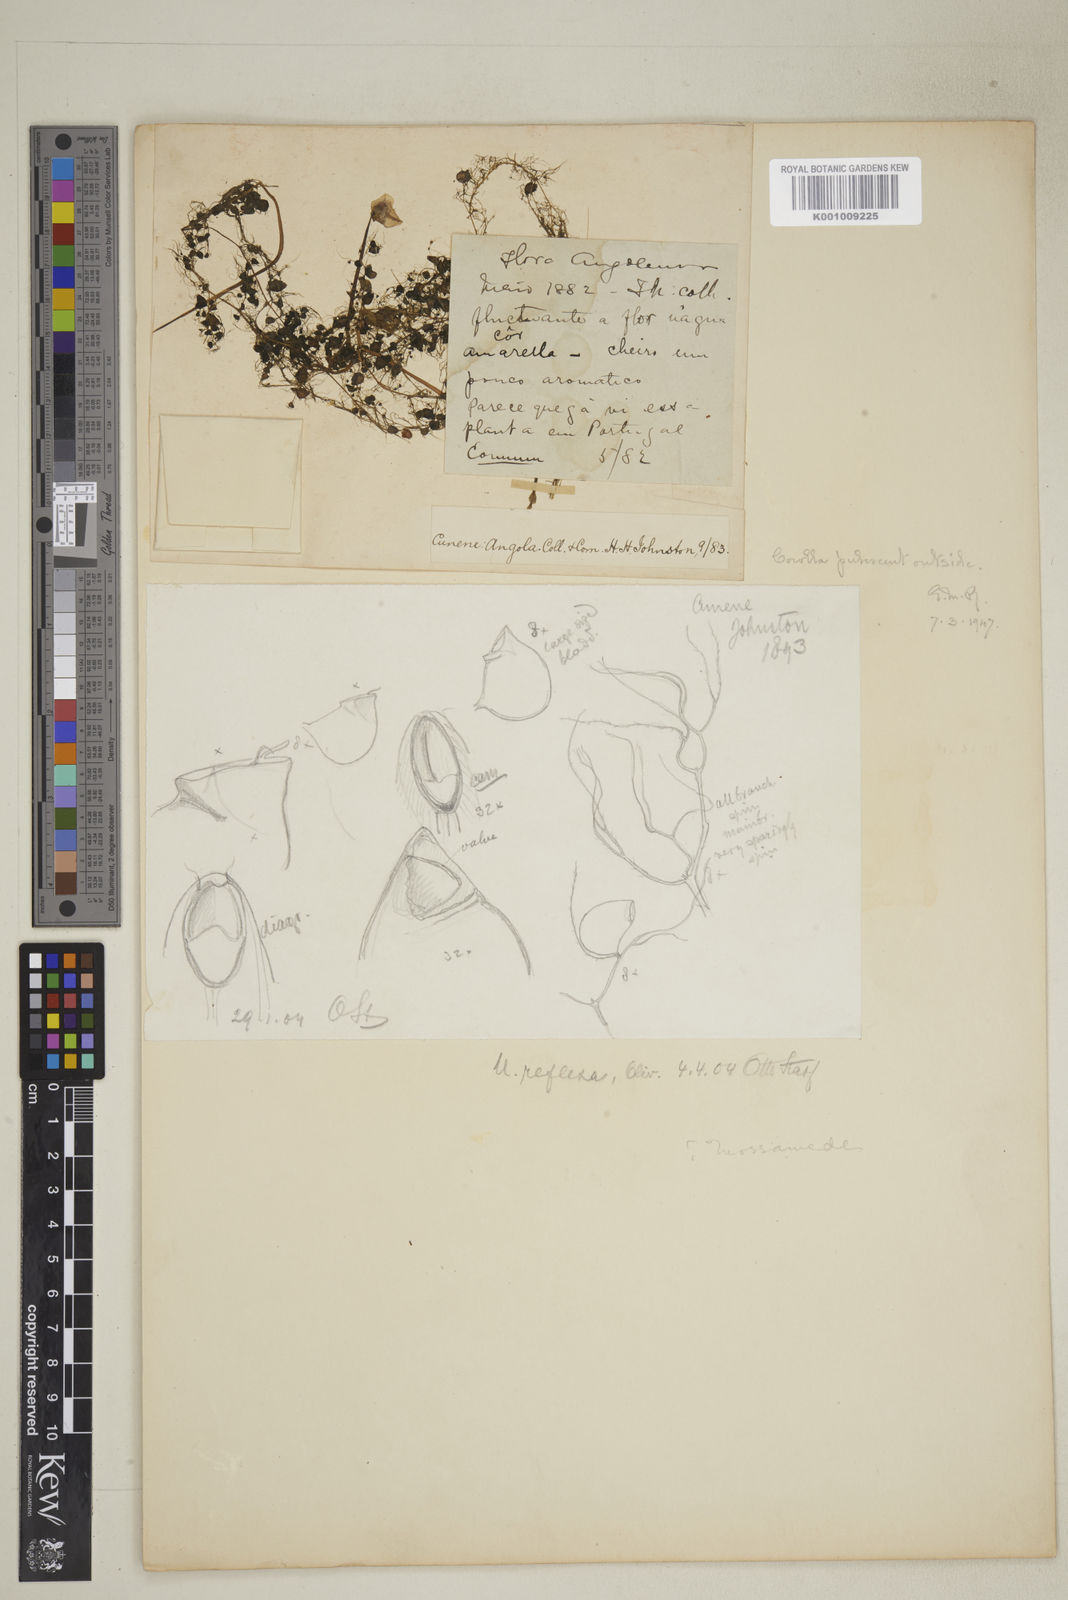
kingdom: Plantae
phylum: Tracheophyta
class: Magnoliopsida
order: Lamiales
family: Lentibulariaceae
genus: Utricularia
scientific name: Utricularia reflexa
